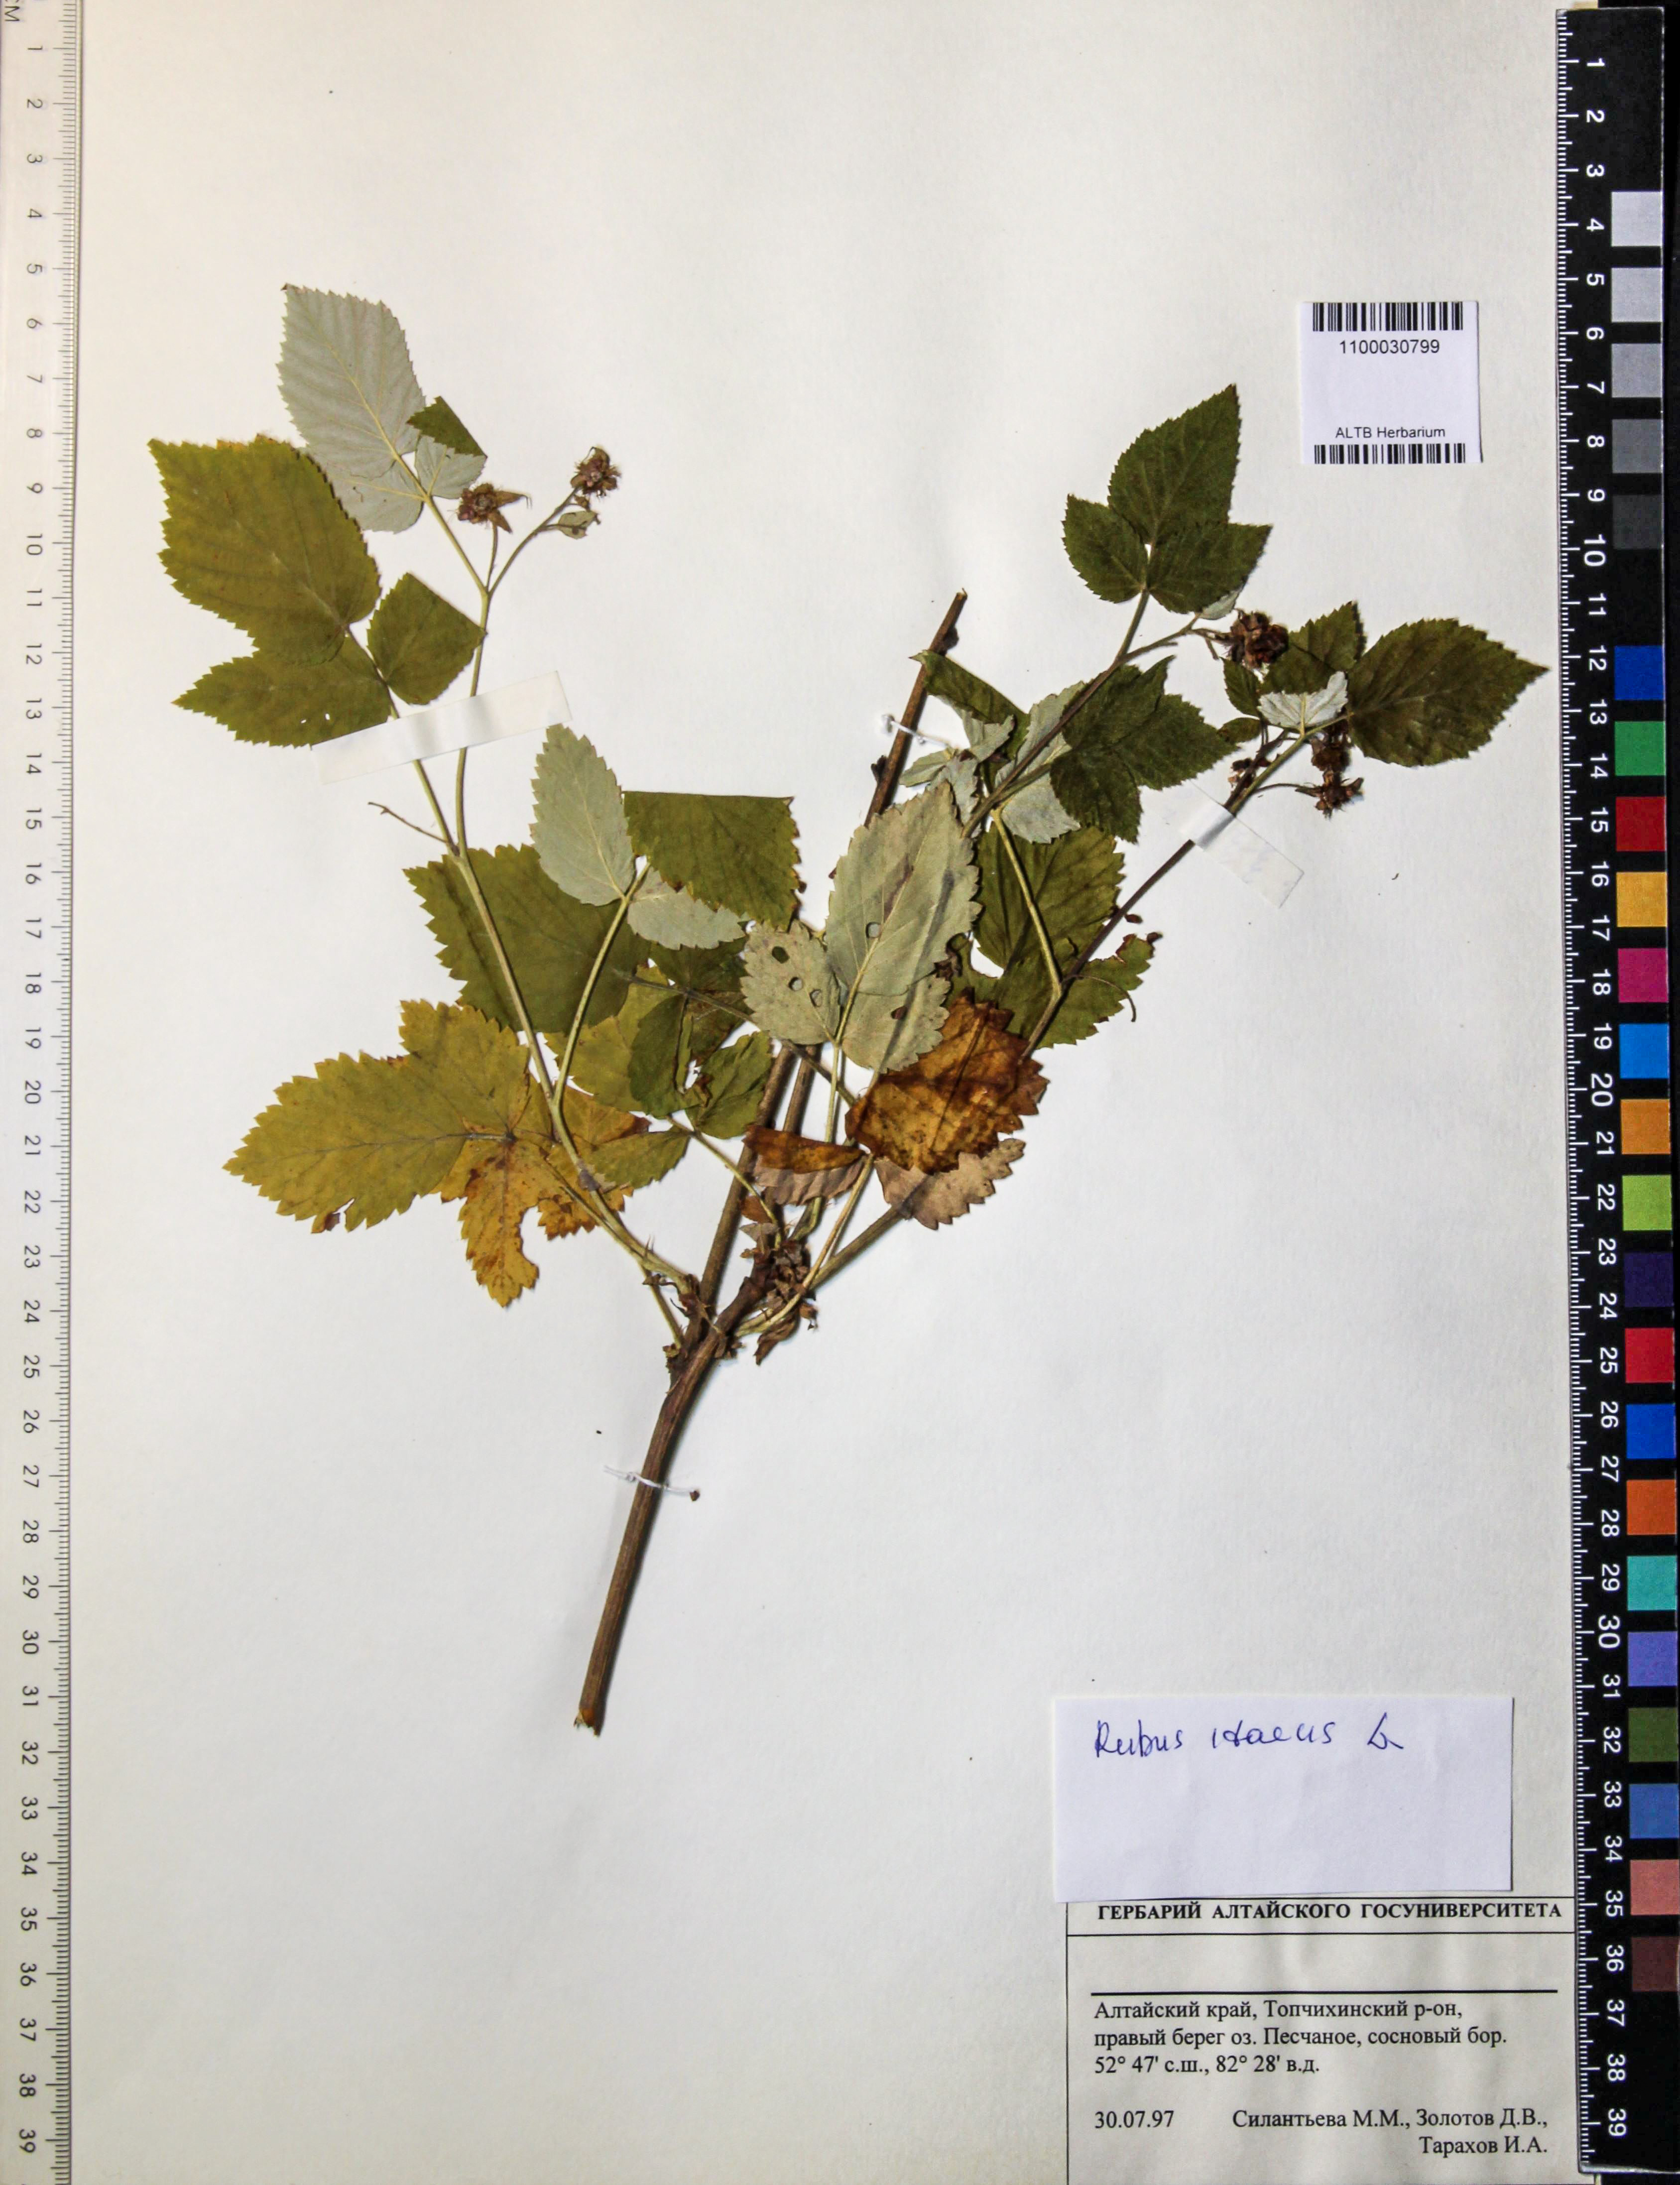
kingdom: Plantae
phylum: Tracheophyta
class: Magnoliopsida
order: Rosales
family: Rosaceae
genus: Rubus
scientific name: Rubus idaeus
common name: Raspberry
